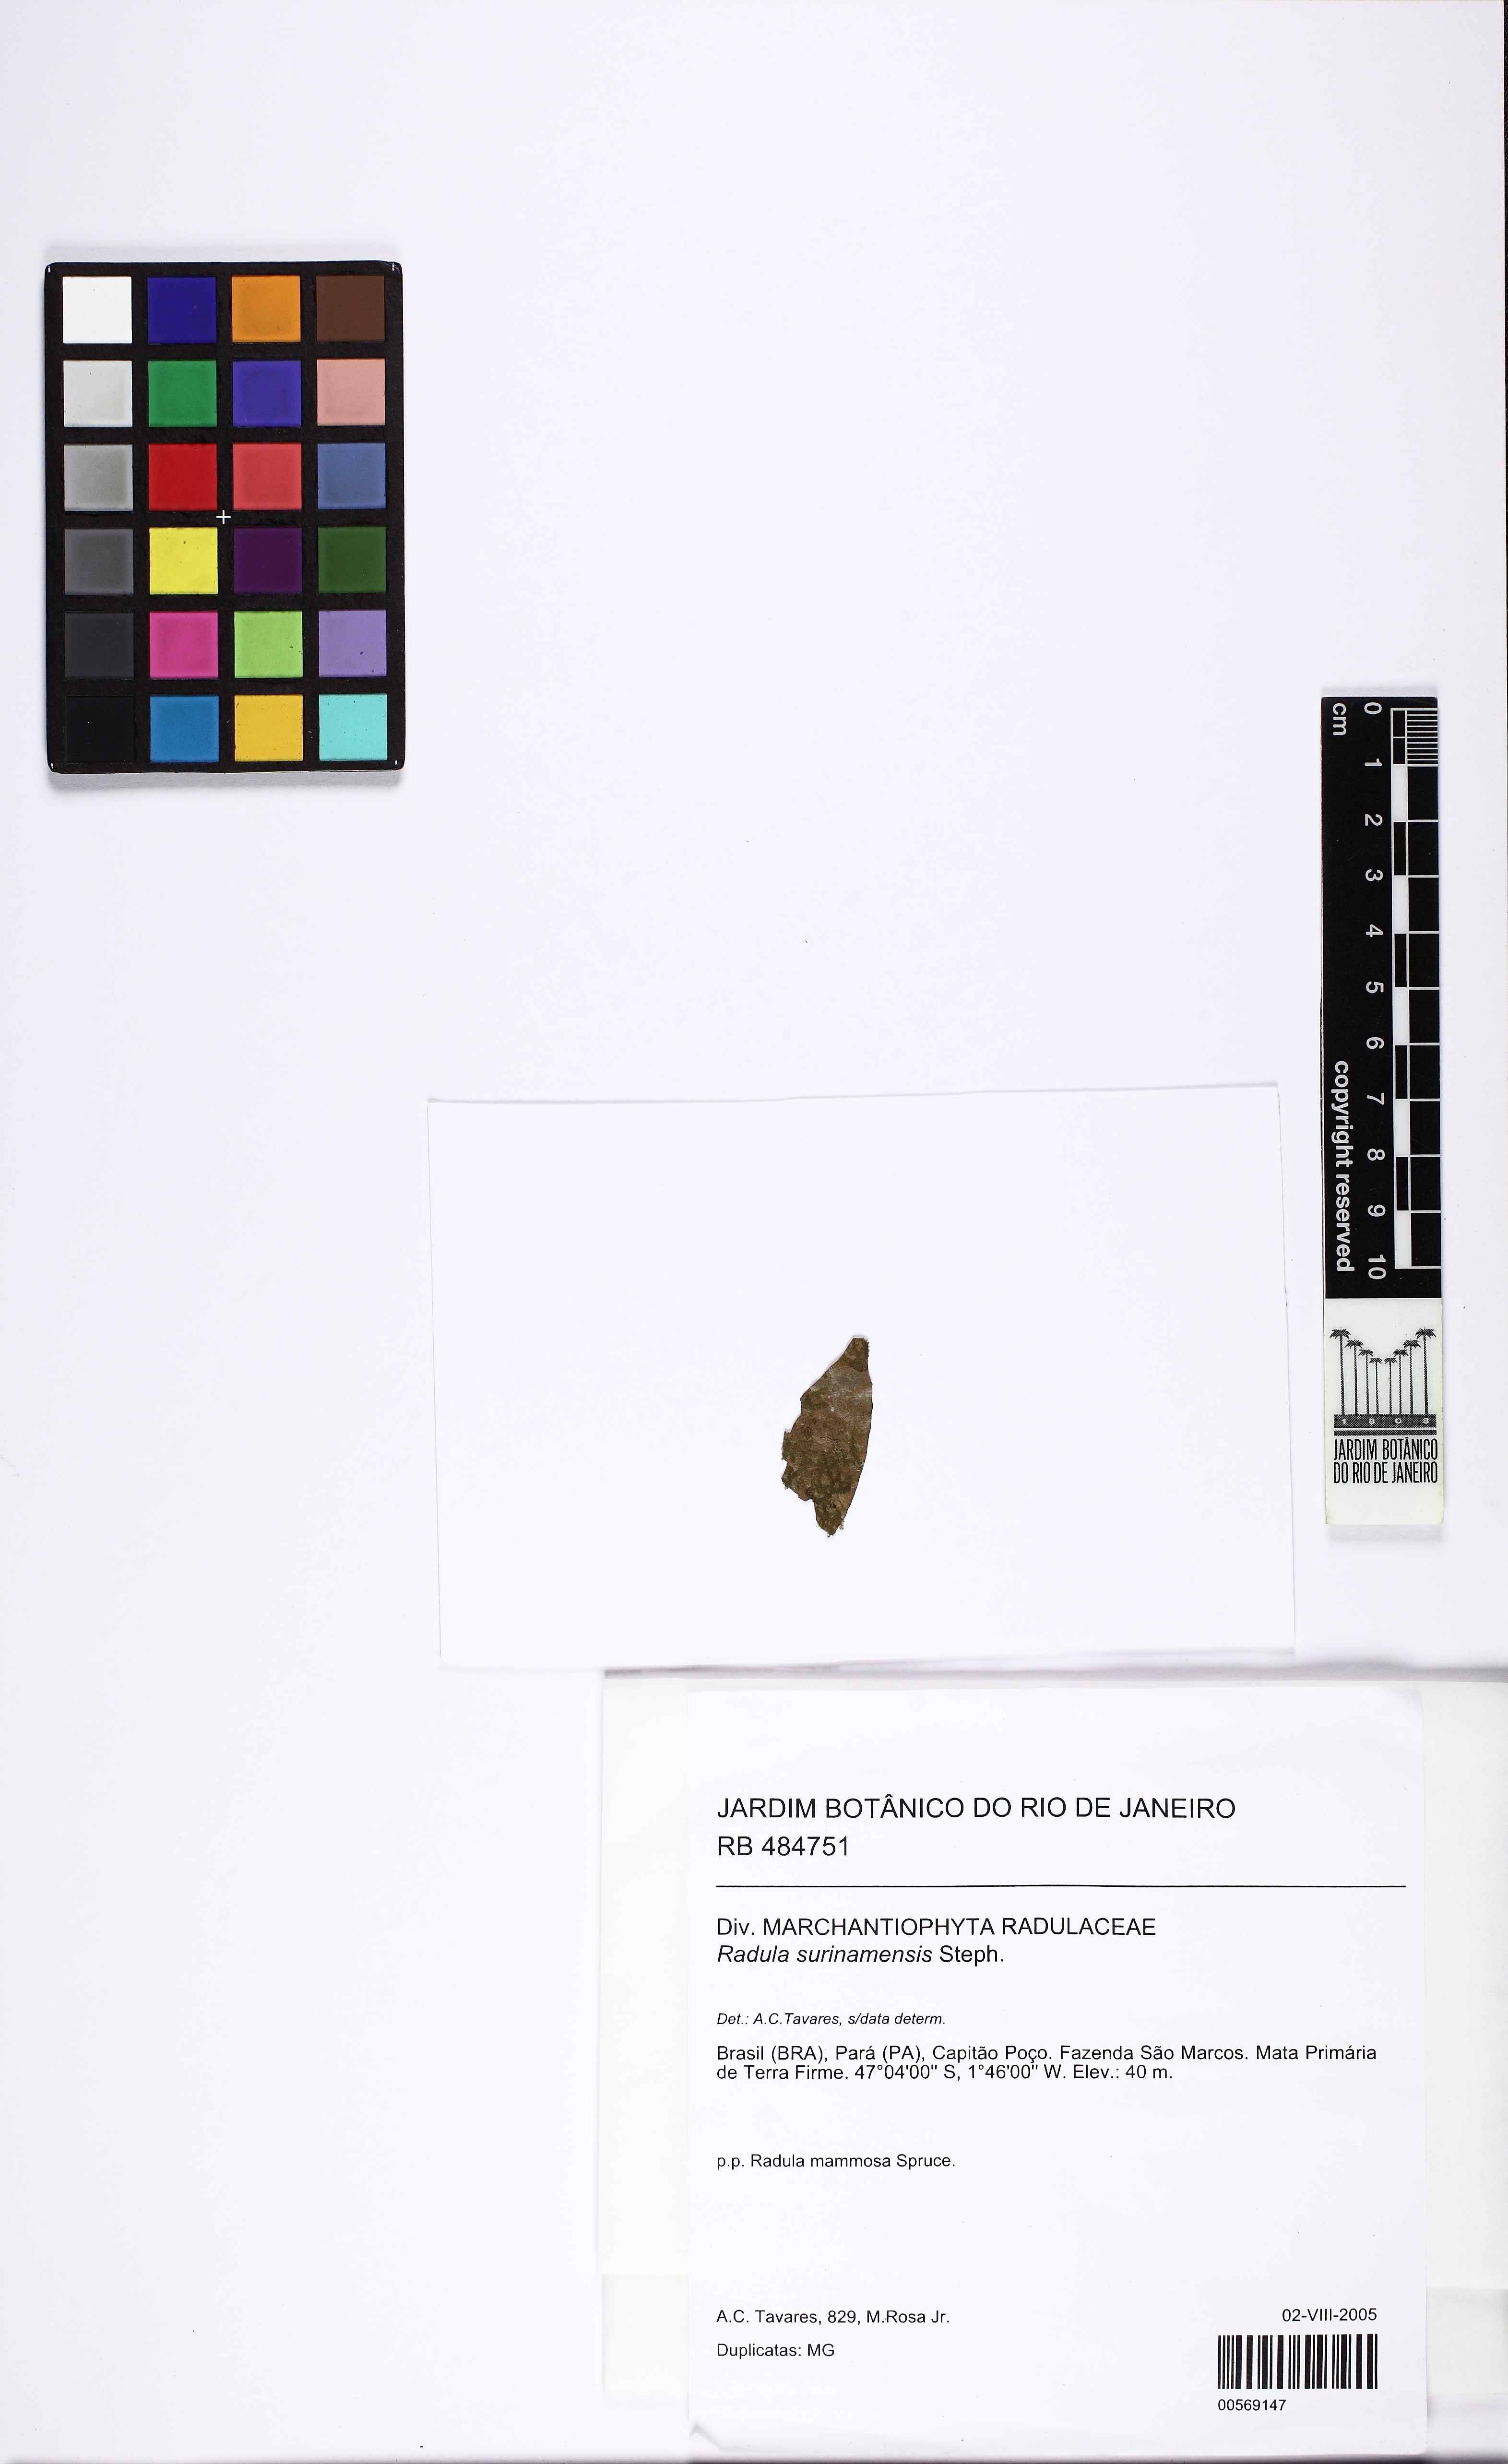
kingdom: Plantae
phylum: Marchantiophyta
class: Jungermanniopsida
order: Porellales
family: Radulaceae
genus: Radula
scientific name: Radula flaccida
